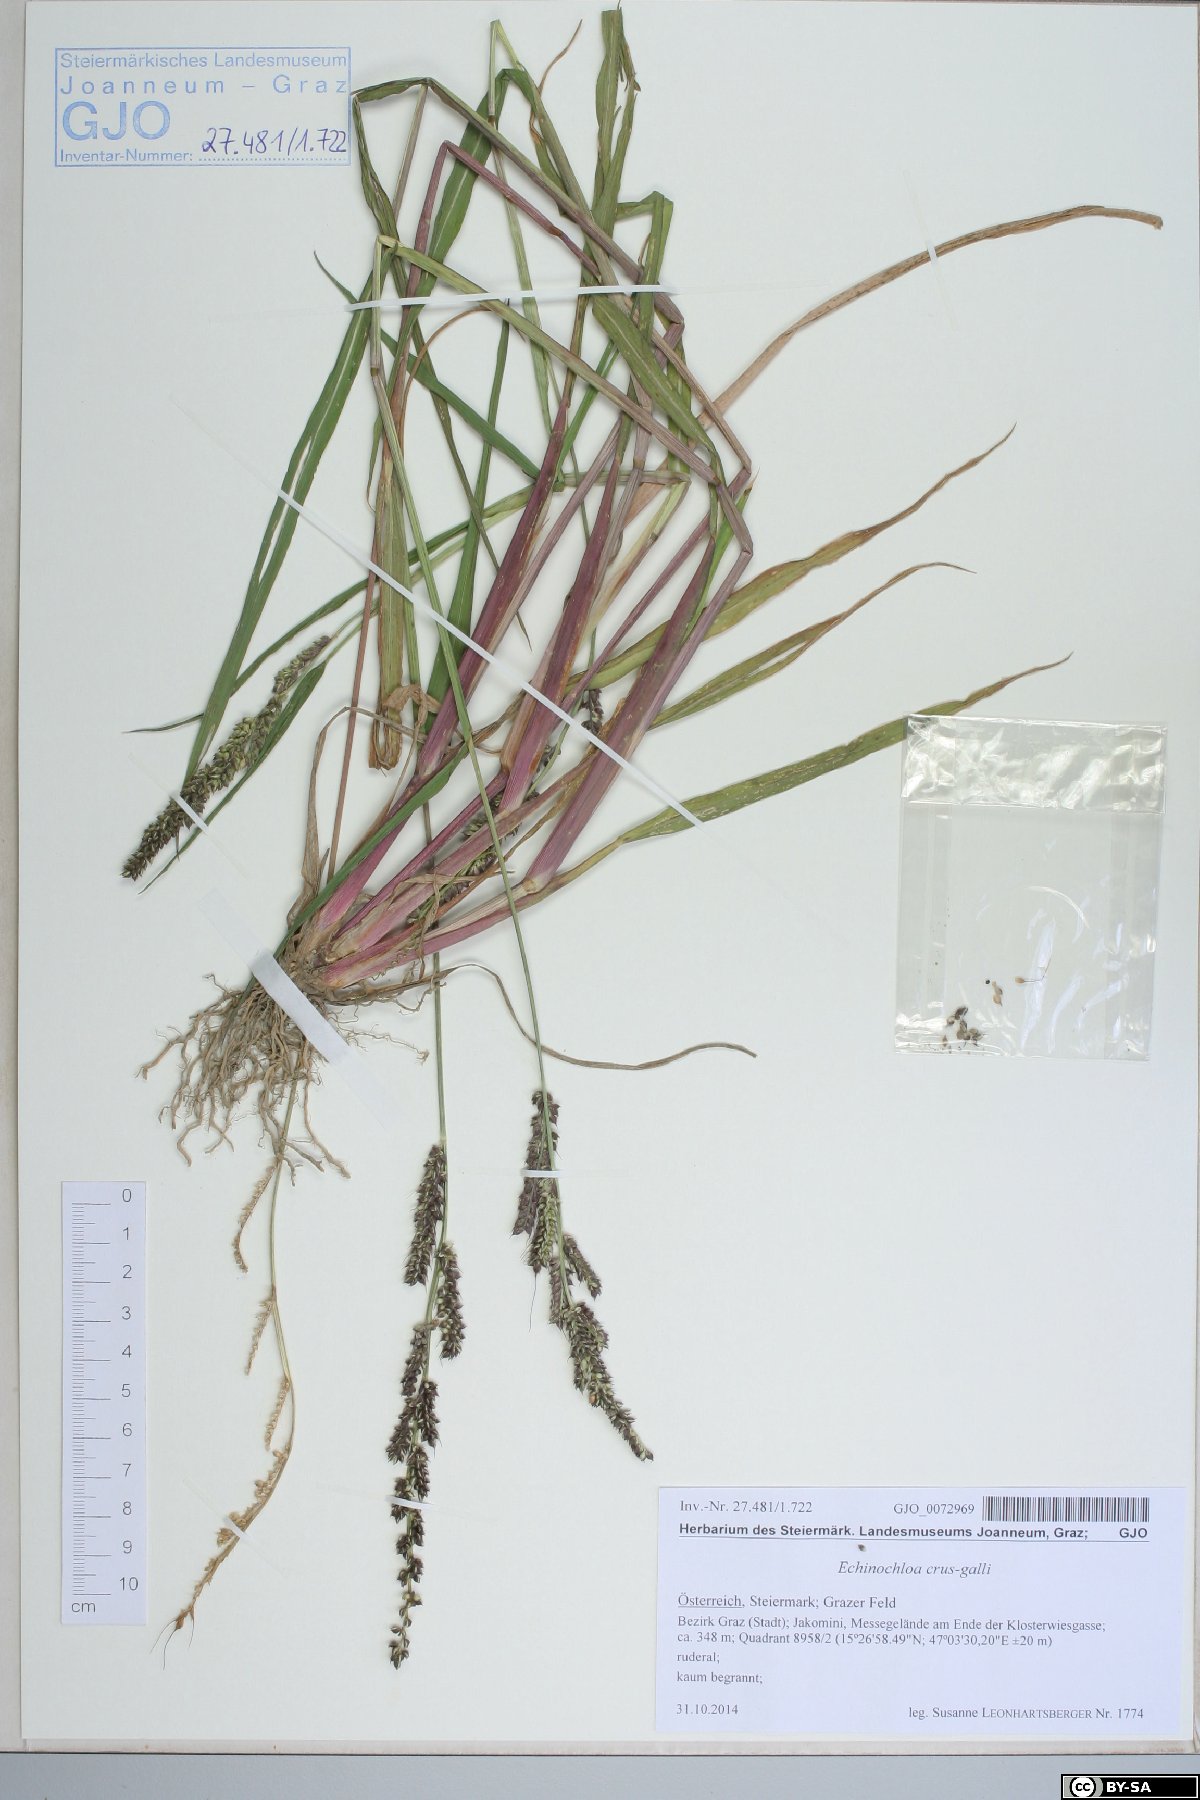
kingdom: Plantae
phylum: Tracheophyta
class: Liliopsida
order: Poales
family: Poaceae
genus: Echinochloa
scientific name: Echinochloa crus-galli
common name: Cockspur
